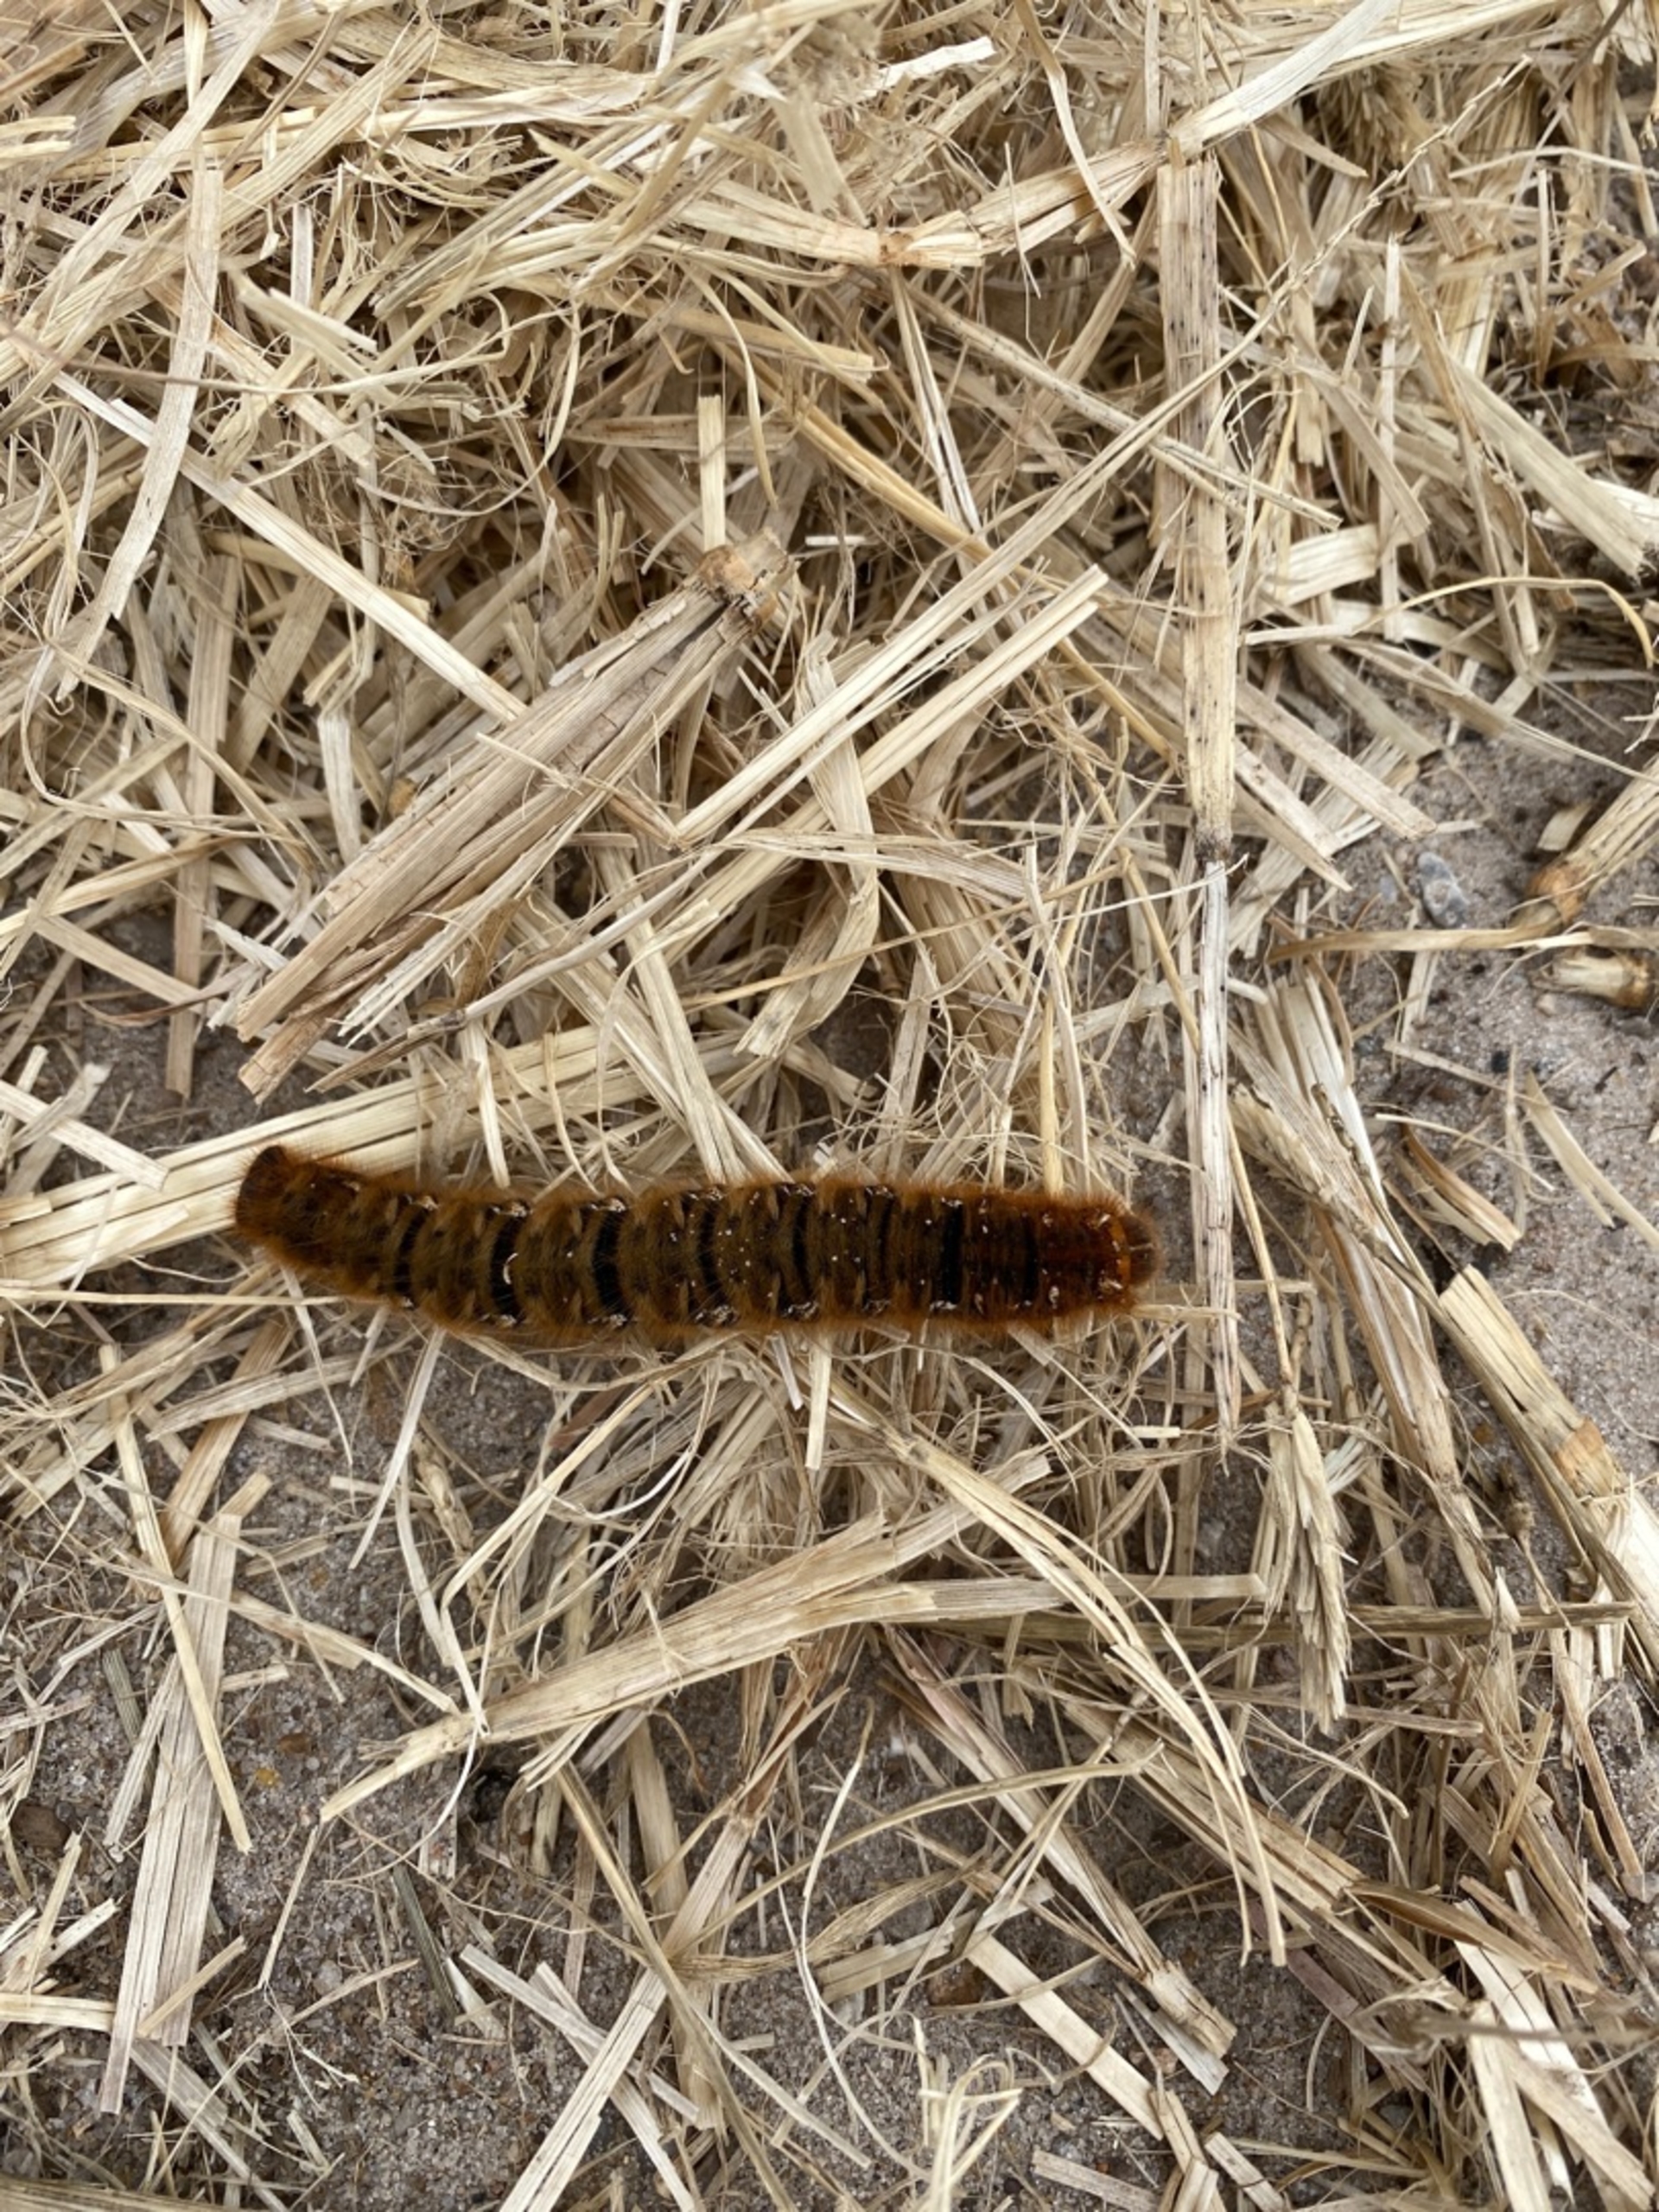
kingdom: Animalia
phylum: Arthropoda
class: Insecta
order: Lepidoptera
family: Lasiocampidae
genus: Lasiocampa
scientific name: Lasiocampa quercus
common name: Egespinder
